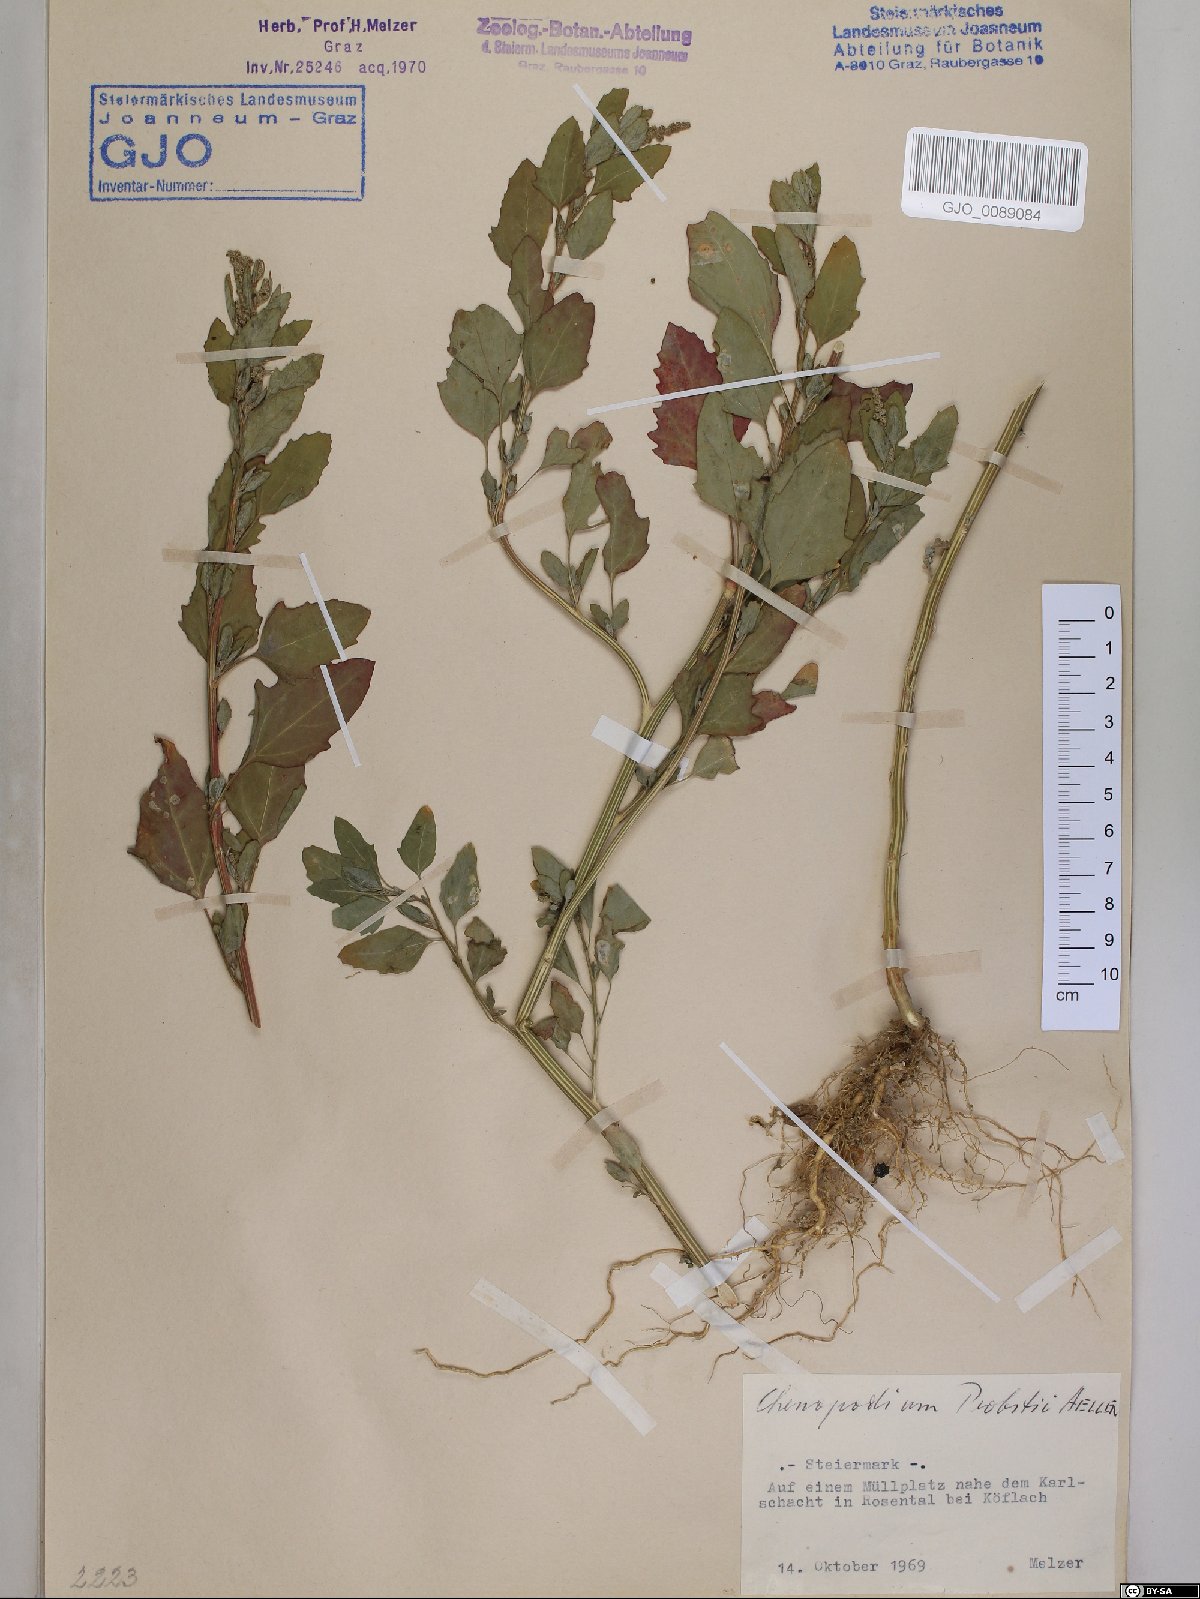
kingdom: Plantae
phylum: Tracheophyta
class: Magnoliopsida
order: Caryophyllales
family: Amaranthaceae
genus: Chenopodium
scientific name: Chenopodium probstii
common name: Probst's goosefoot
